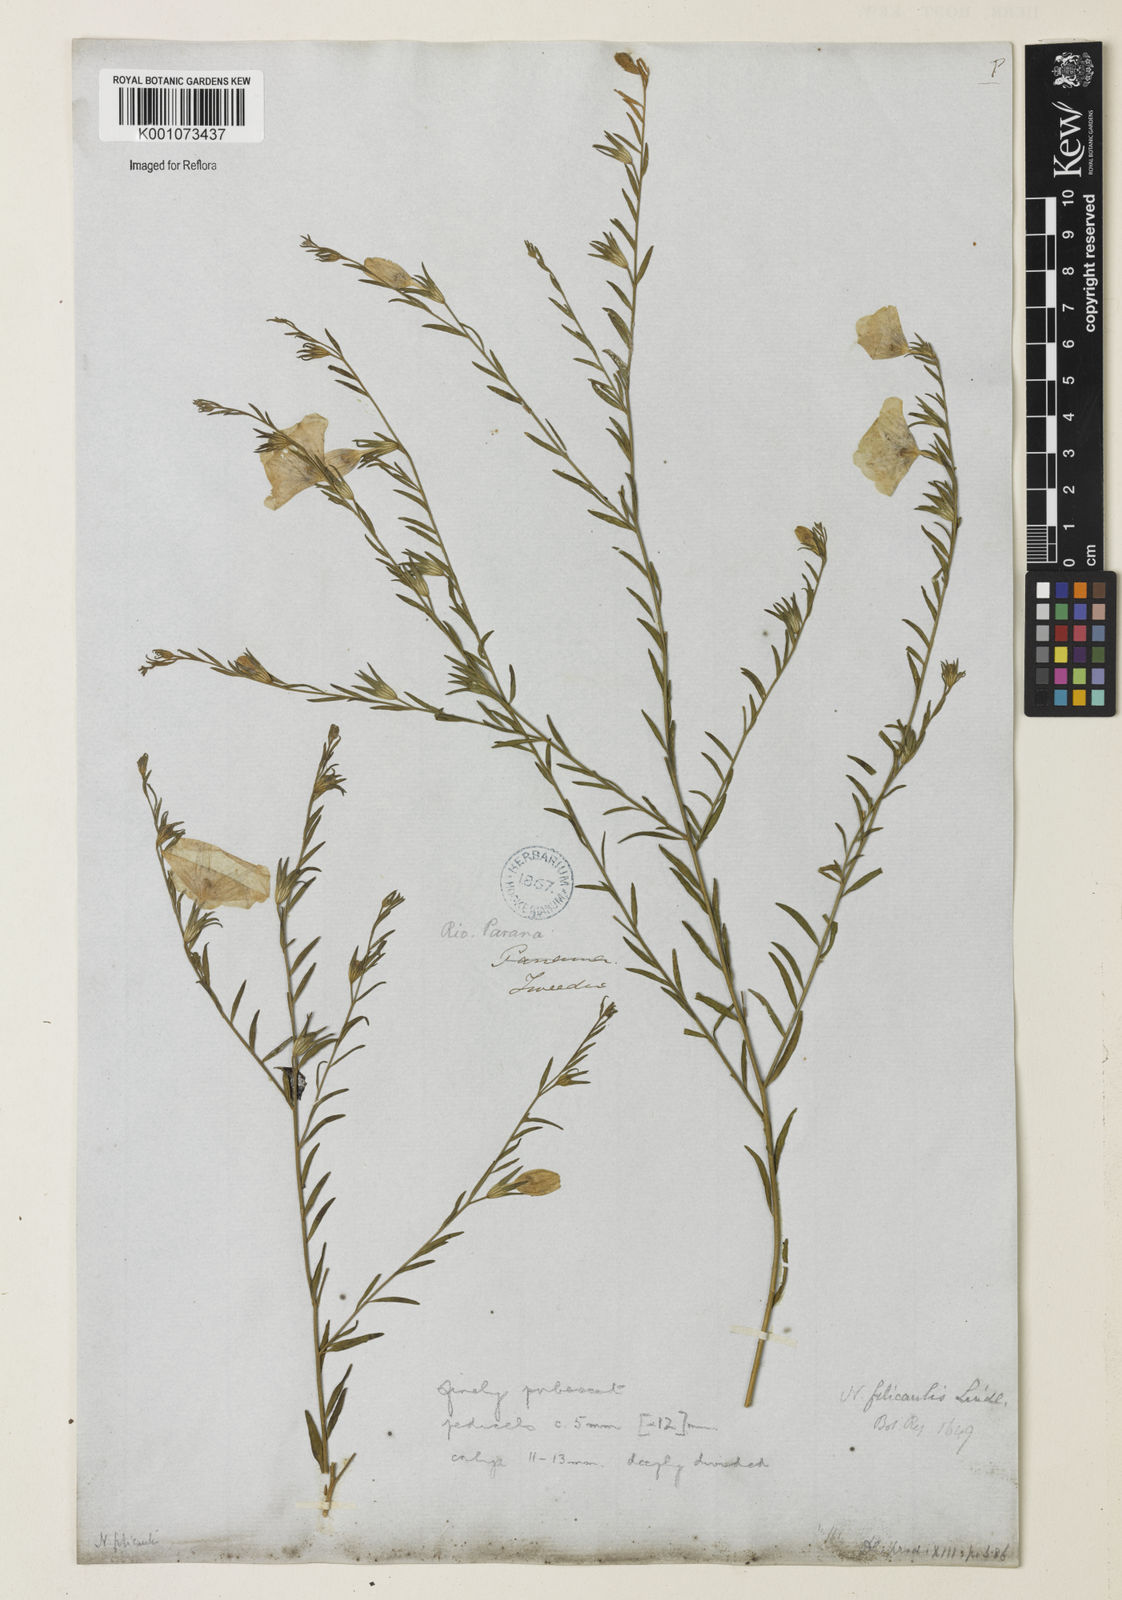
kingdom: Plantae
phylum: Tracheophyta
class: Magnoliopsida
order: Solanales
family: Solanaceae
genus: Nierembergia
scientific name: Nierembergia scoparia
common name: Broom cupflower
